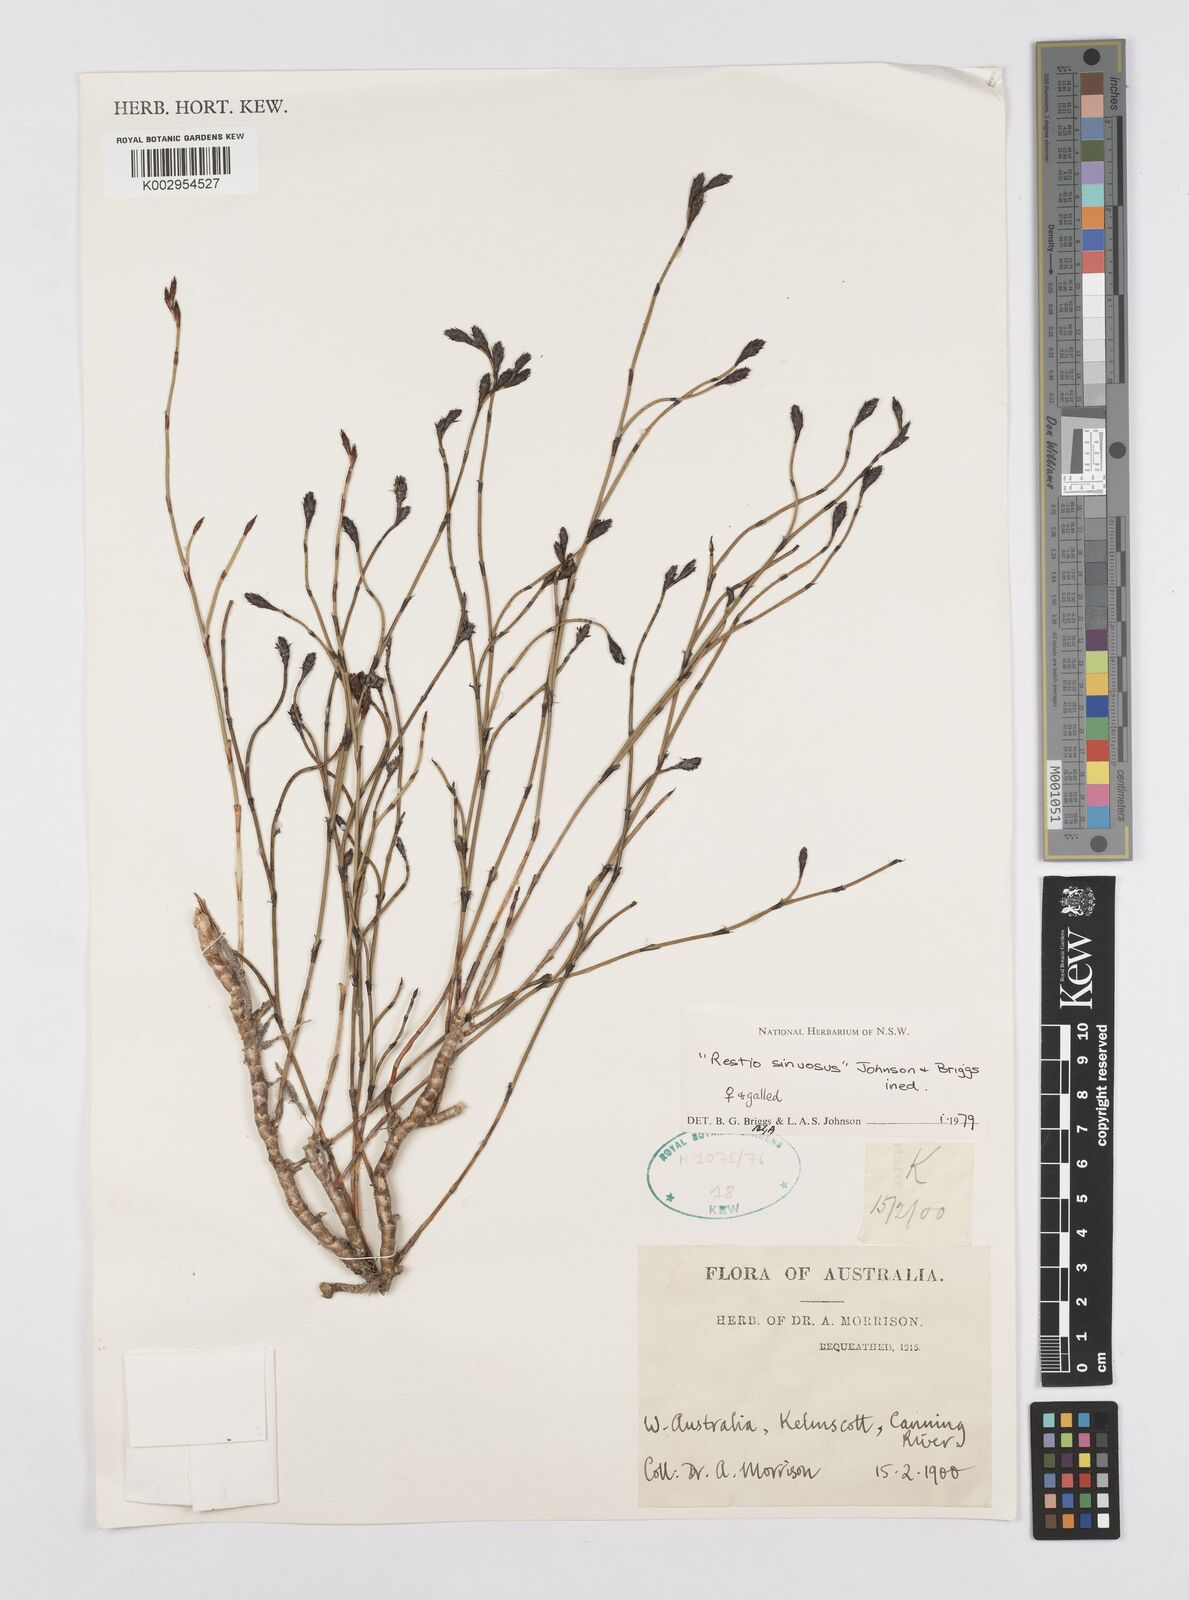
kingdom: Plantae
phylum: Tracheophyta
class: Liliopsida
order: Poales
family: Restionaceae
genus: Chordifex
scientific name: Chordifex sinuosus
